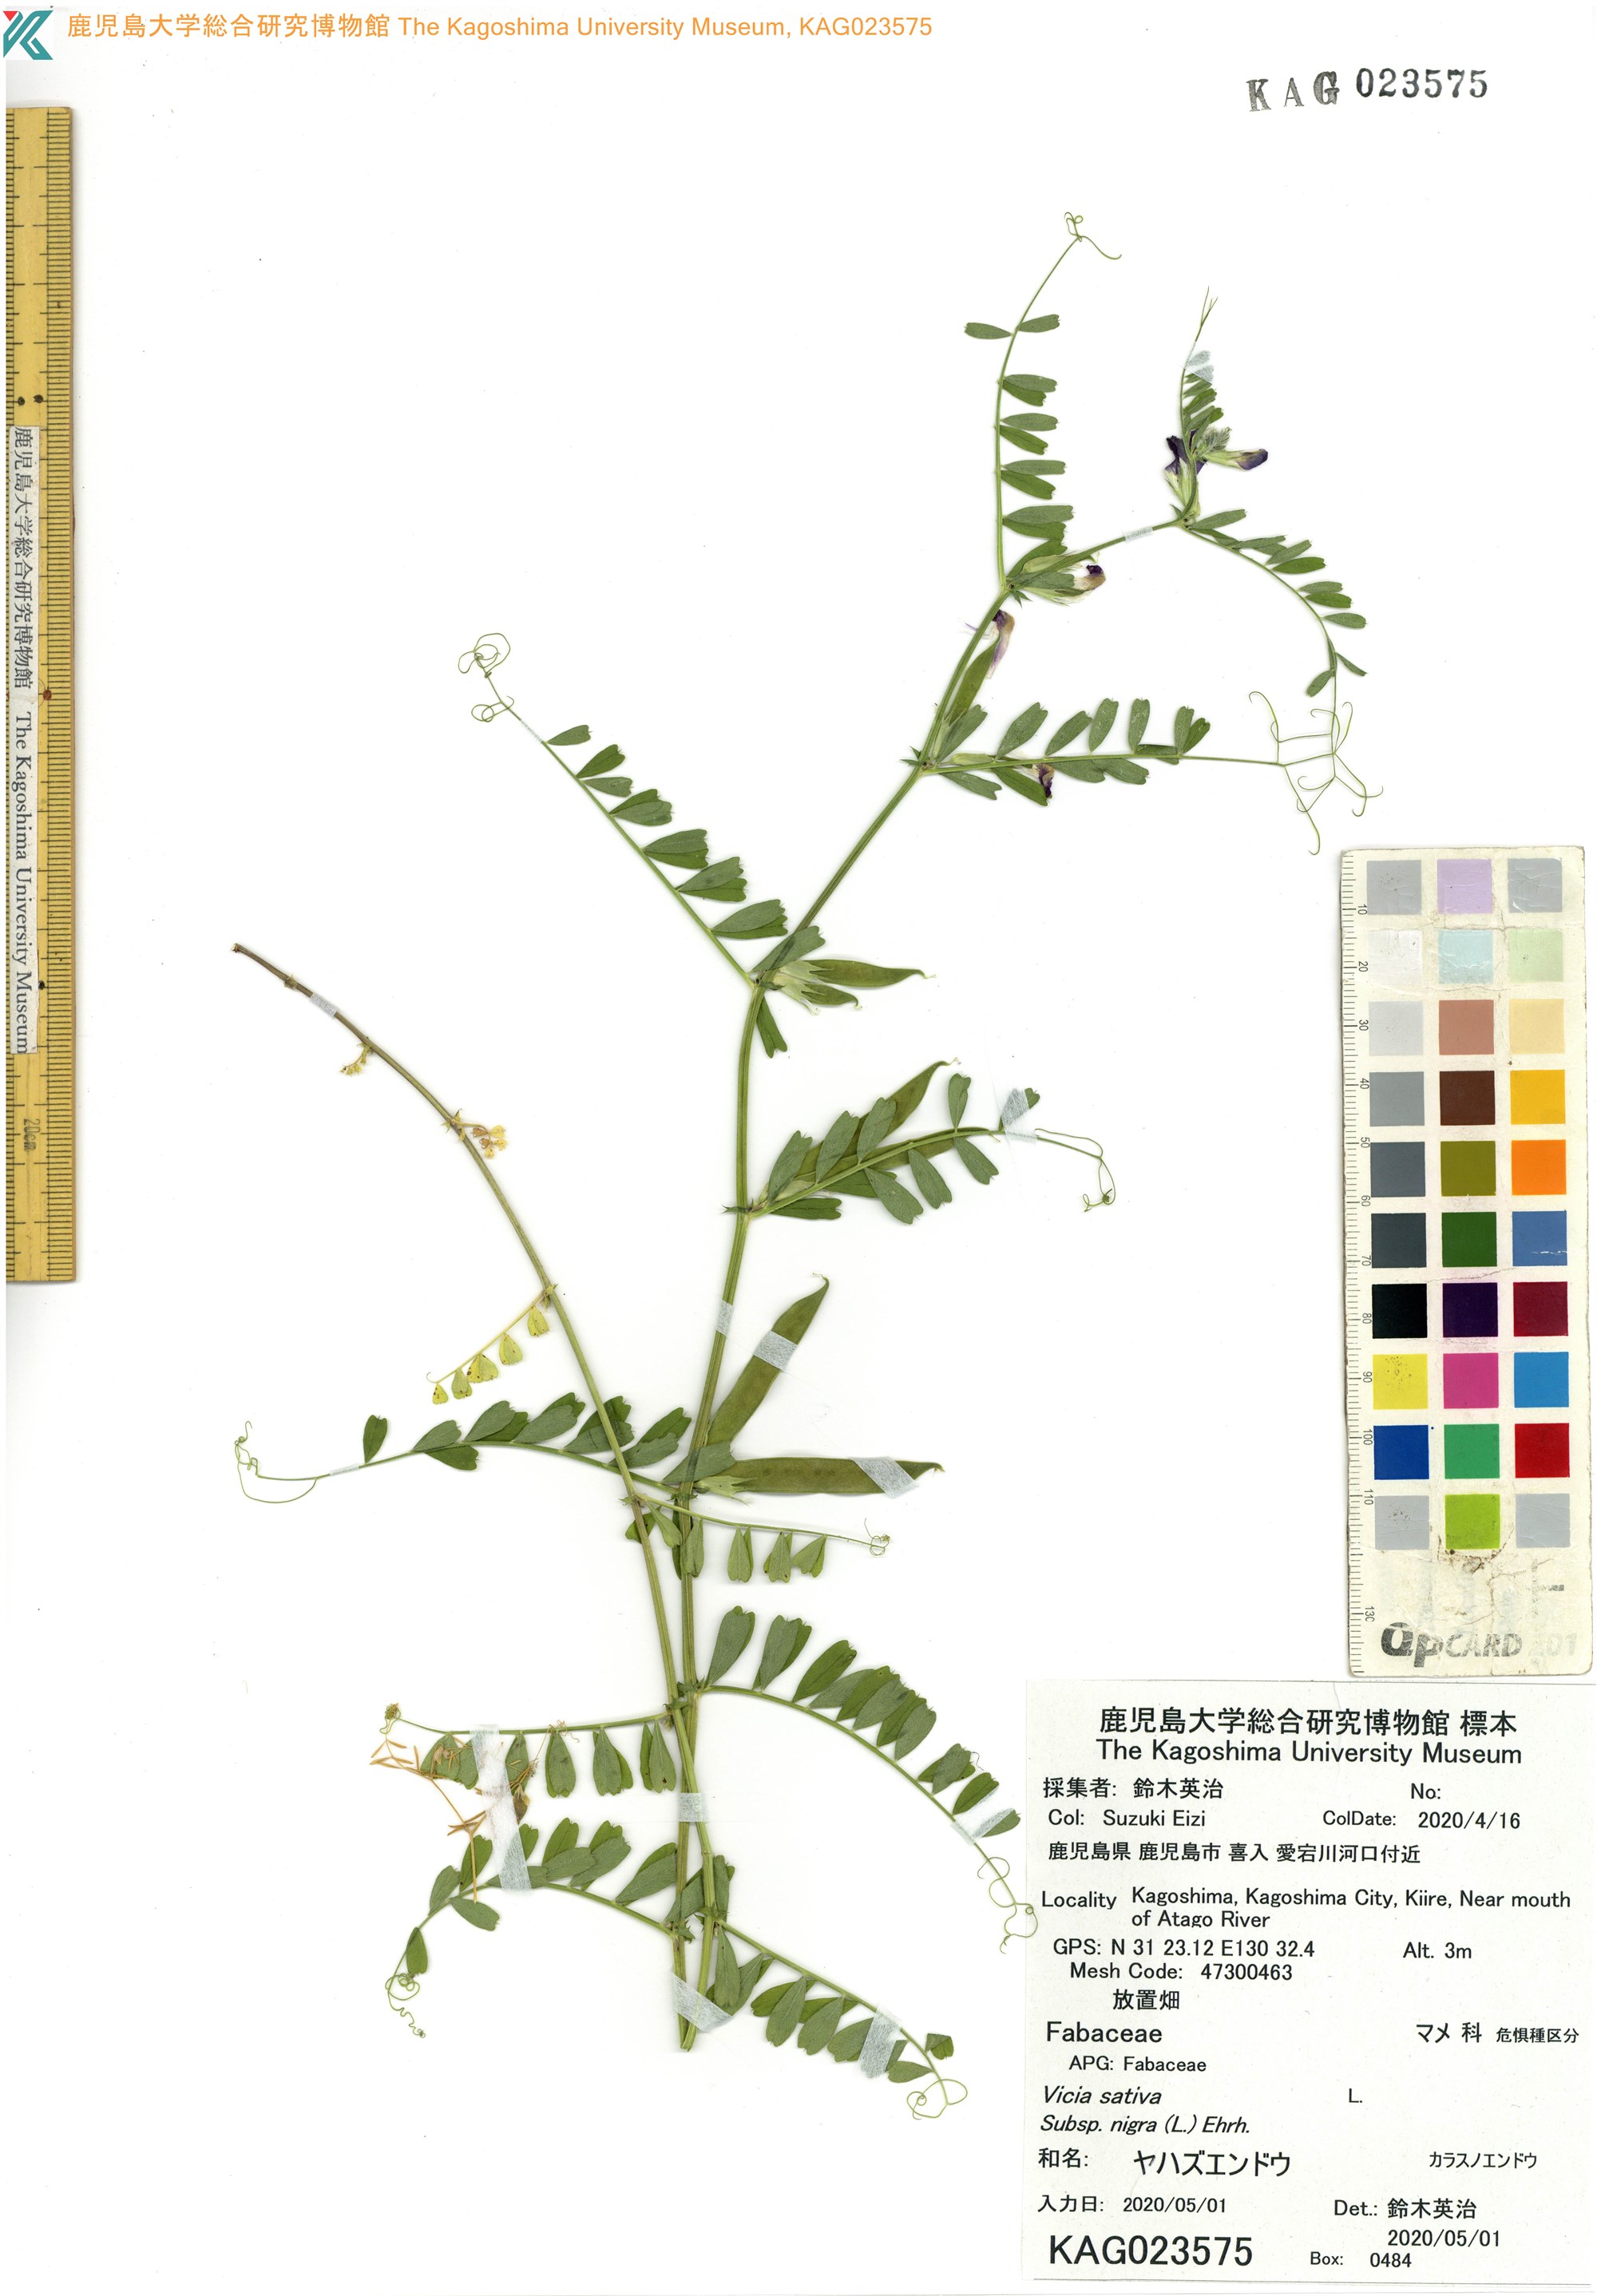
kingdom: Plantae
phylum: Tracheophyta
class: Magnoliopsida
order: Fabales
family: Fabaceae
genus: Vicia
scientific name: Vicia sativa
